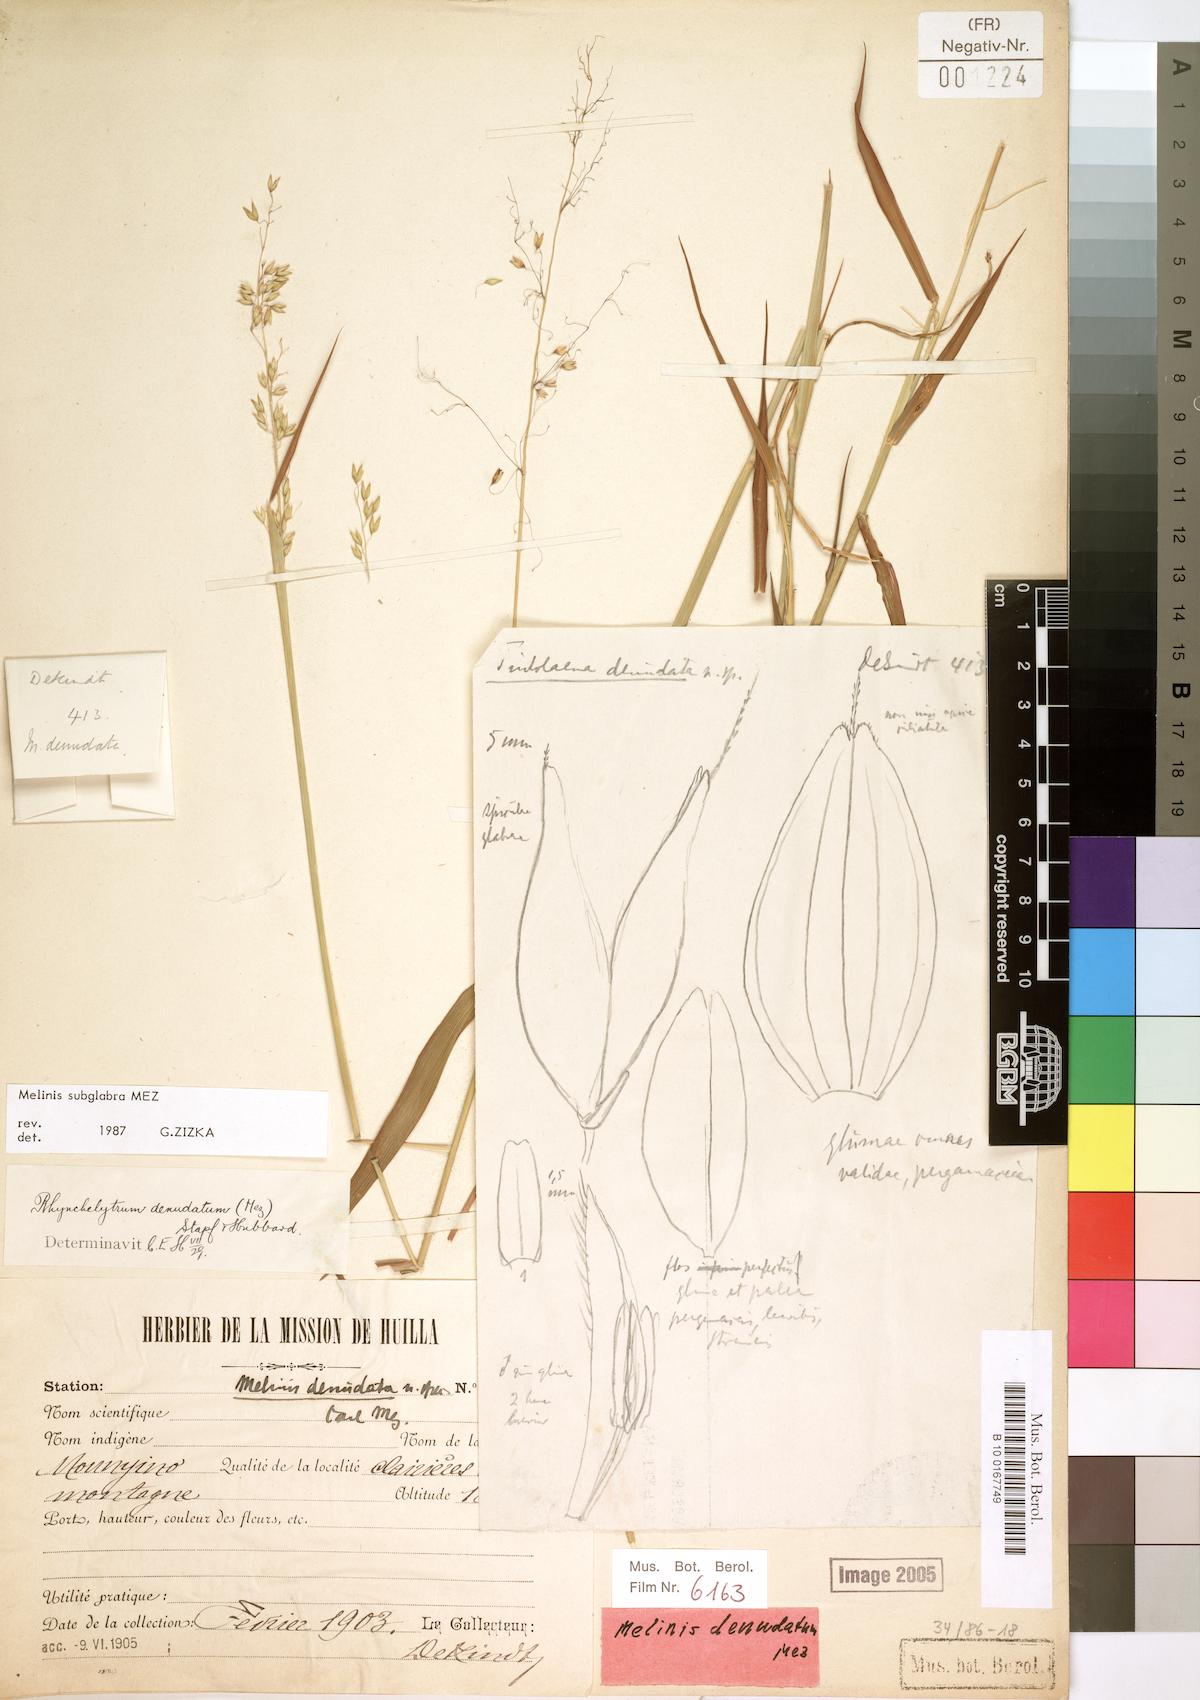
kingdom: Plantae
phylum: Tracheophyta
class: Liliopsida
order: Poales
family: Poaceae
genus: Melinis
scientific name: Melinis subglabra
